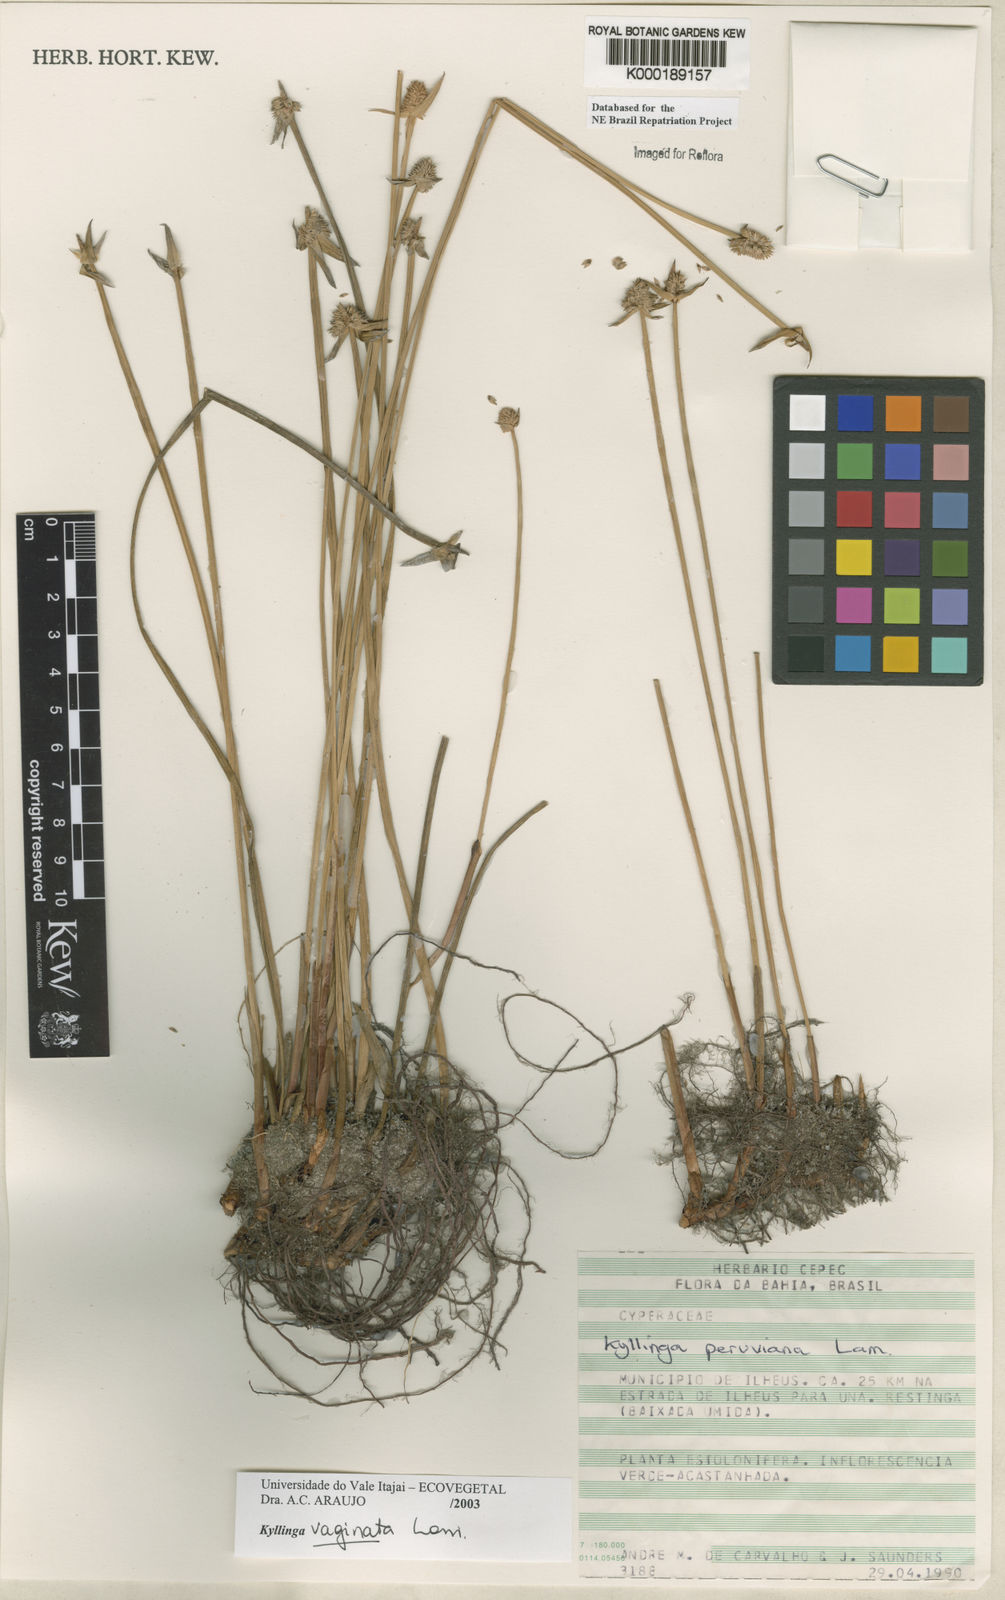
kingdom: Plantae
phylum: Tracheophyta
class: Liliopsida
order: Poales
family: Cyperaceae
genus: Cyperus
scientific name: Cyperus obtusatus
